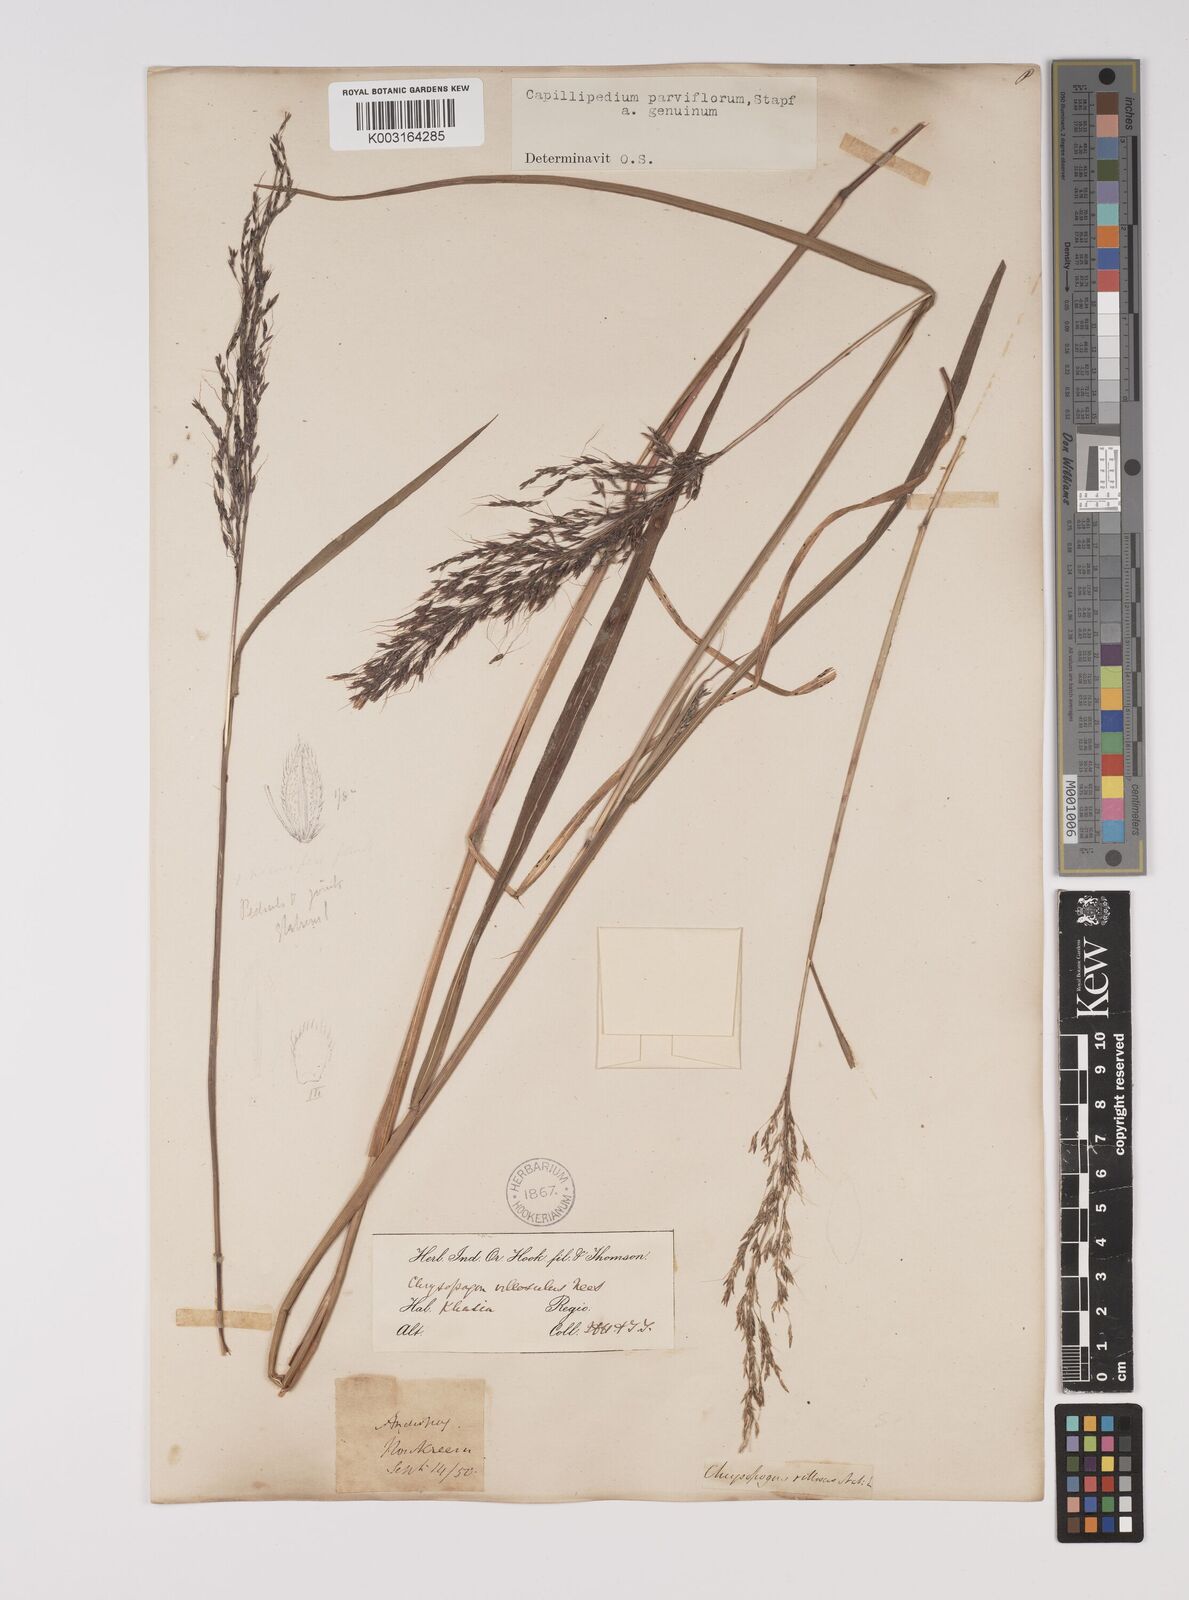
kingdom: Plantae
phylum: Tracheophyta
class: Liliopsida
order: Poales
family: Poaceae
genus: Capillipedium
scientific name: Capillipedium parviflorum
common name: Golden-beard
